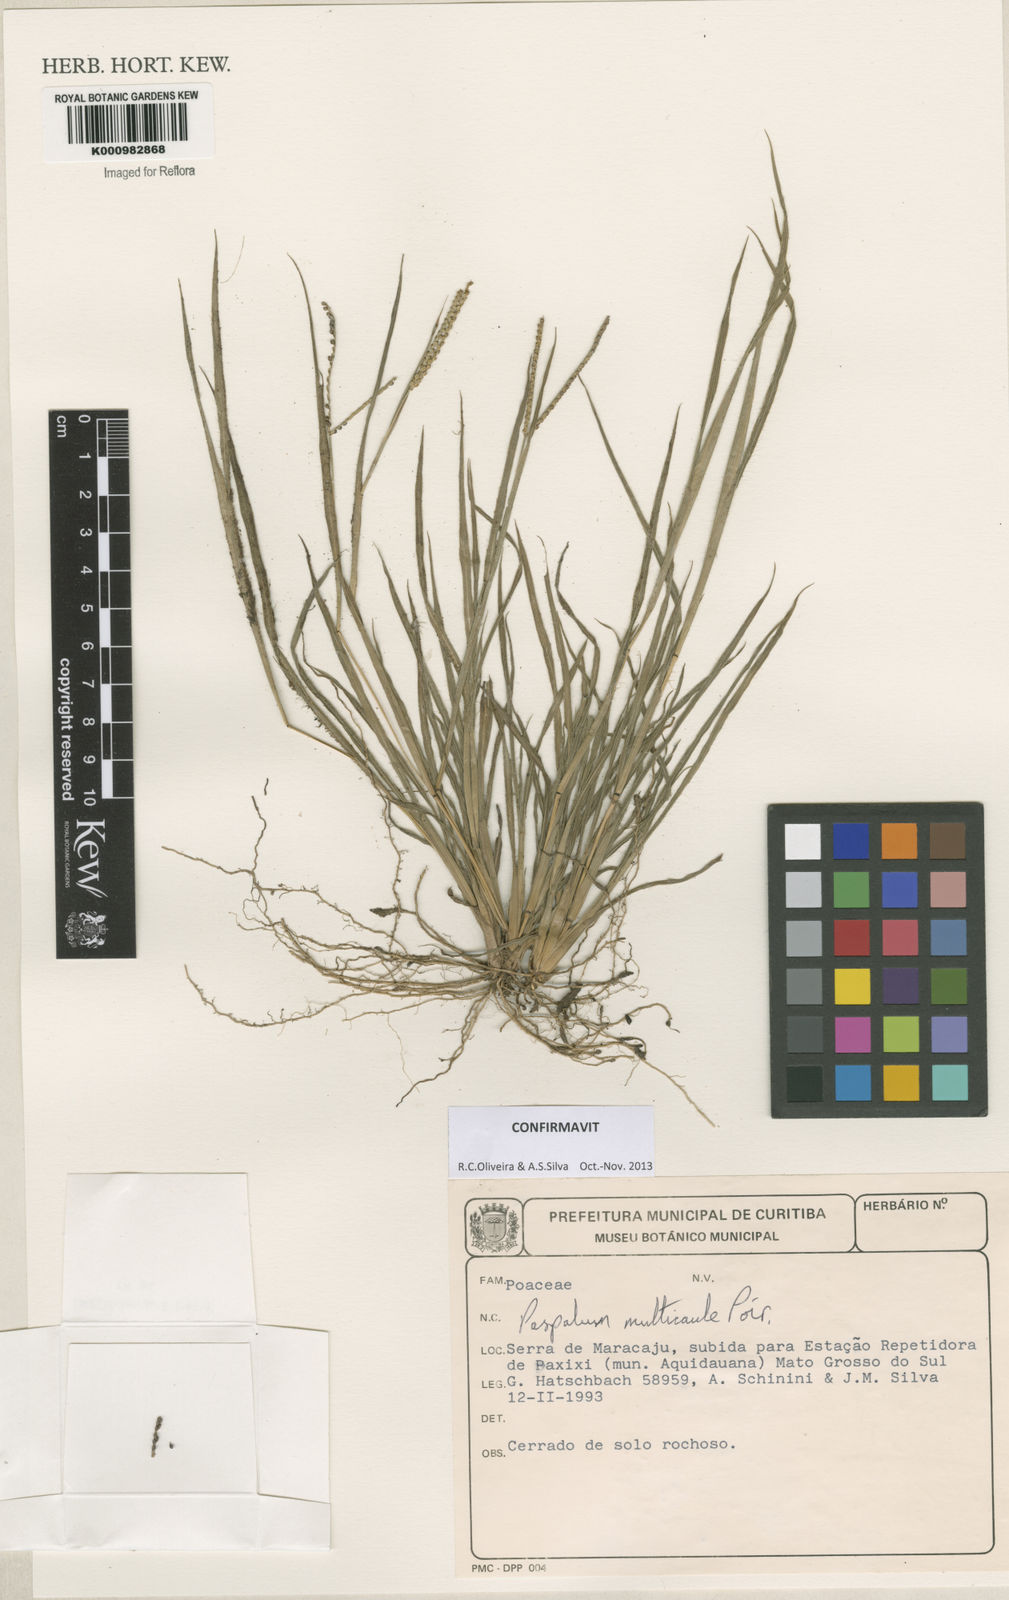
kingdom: Plantae
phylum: Tracheophyta
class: Liliopsida
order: Poales
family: Poaceae
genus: Paspalum
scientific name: Paspalum multicaule
